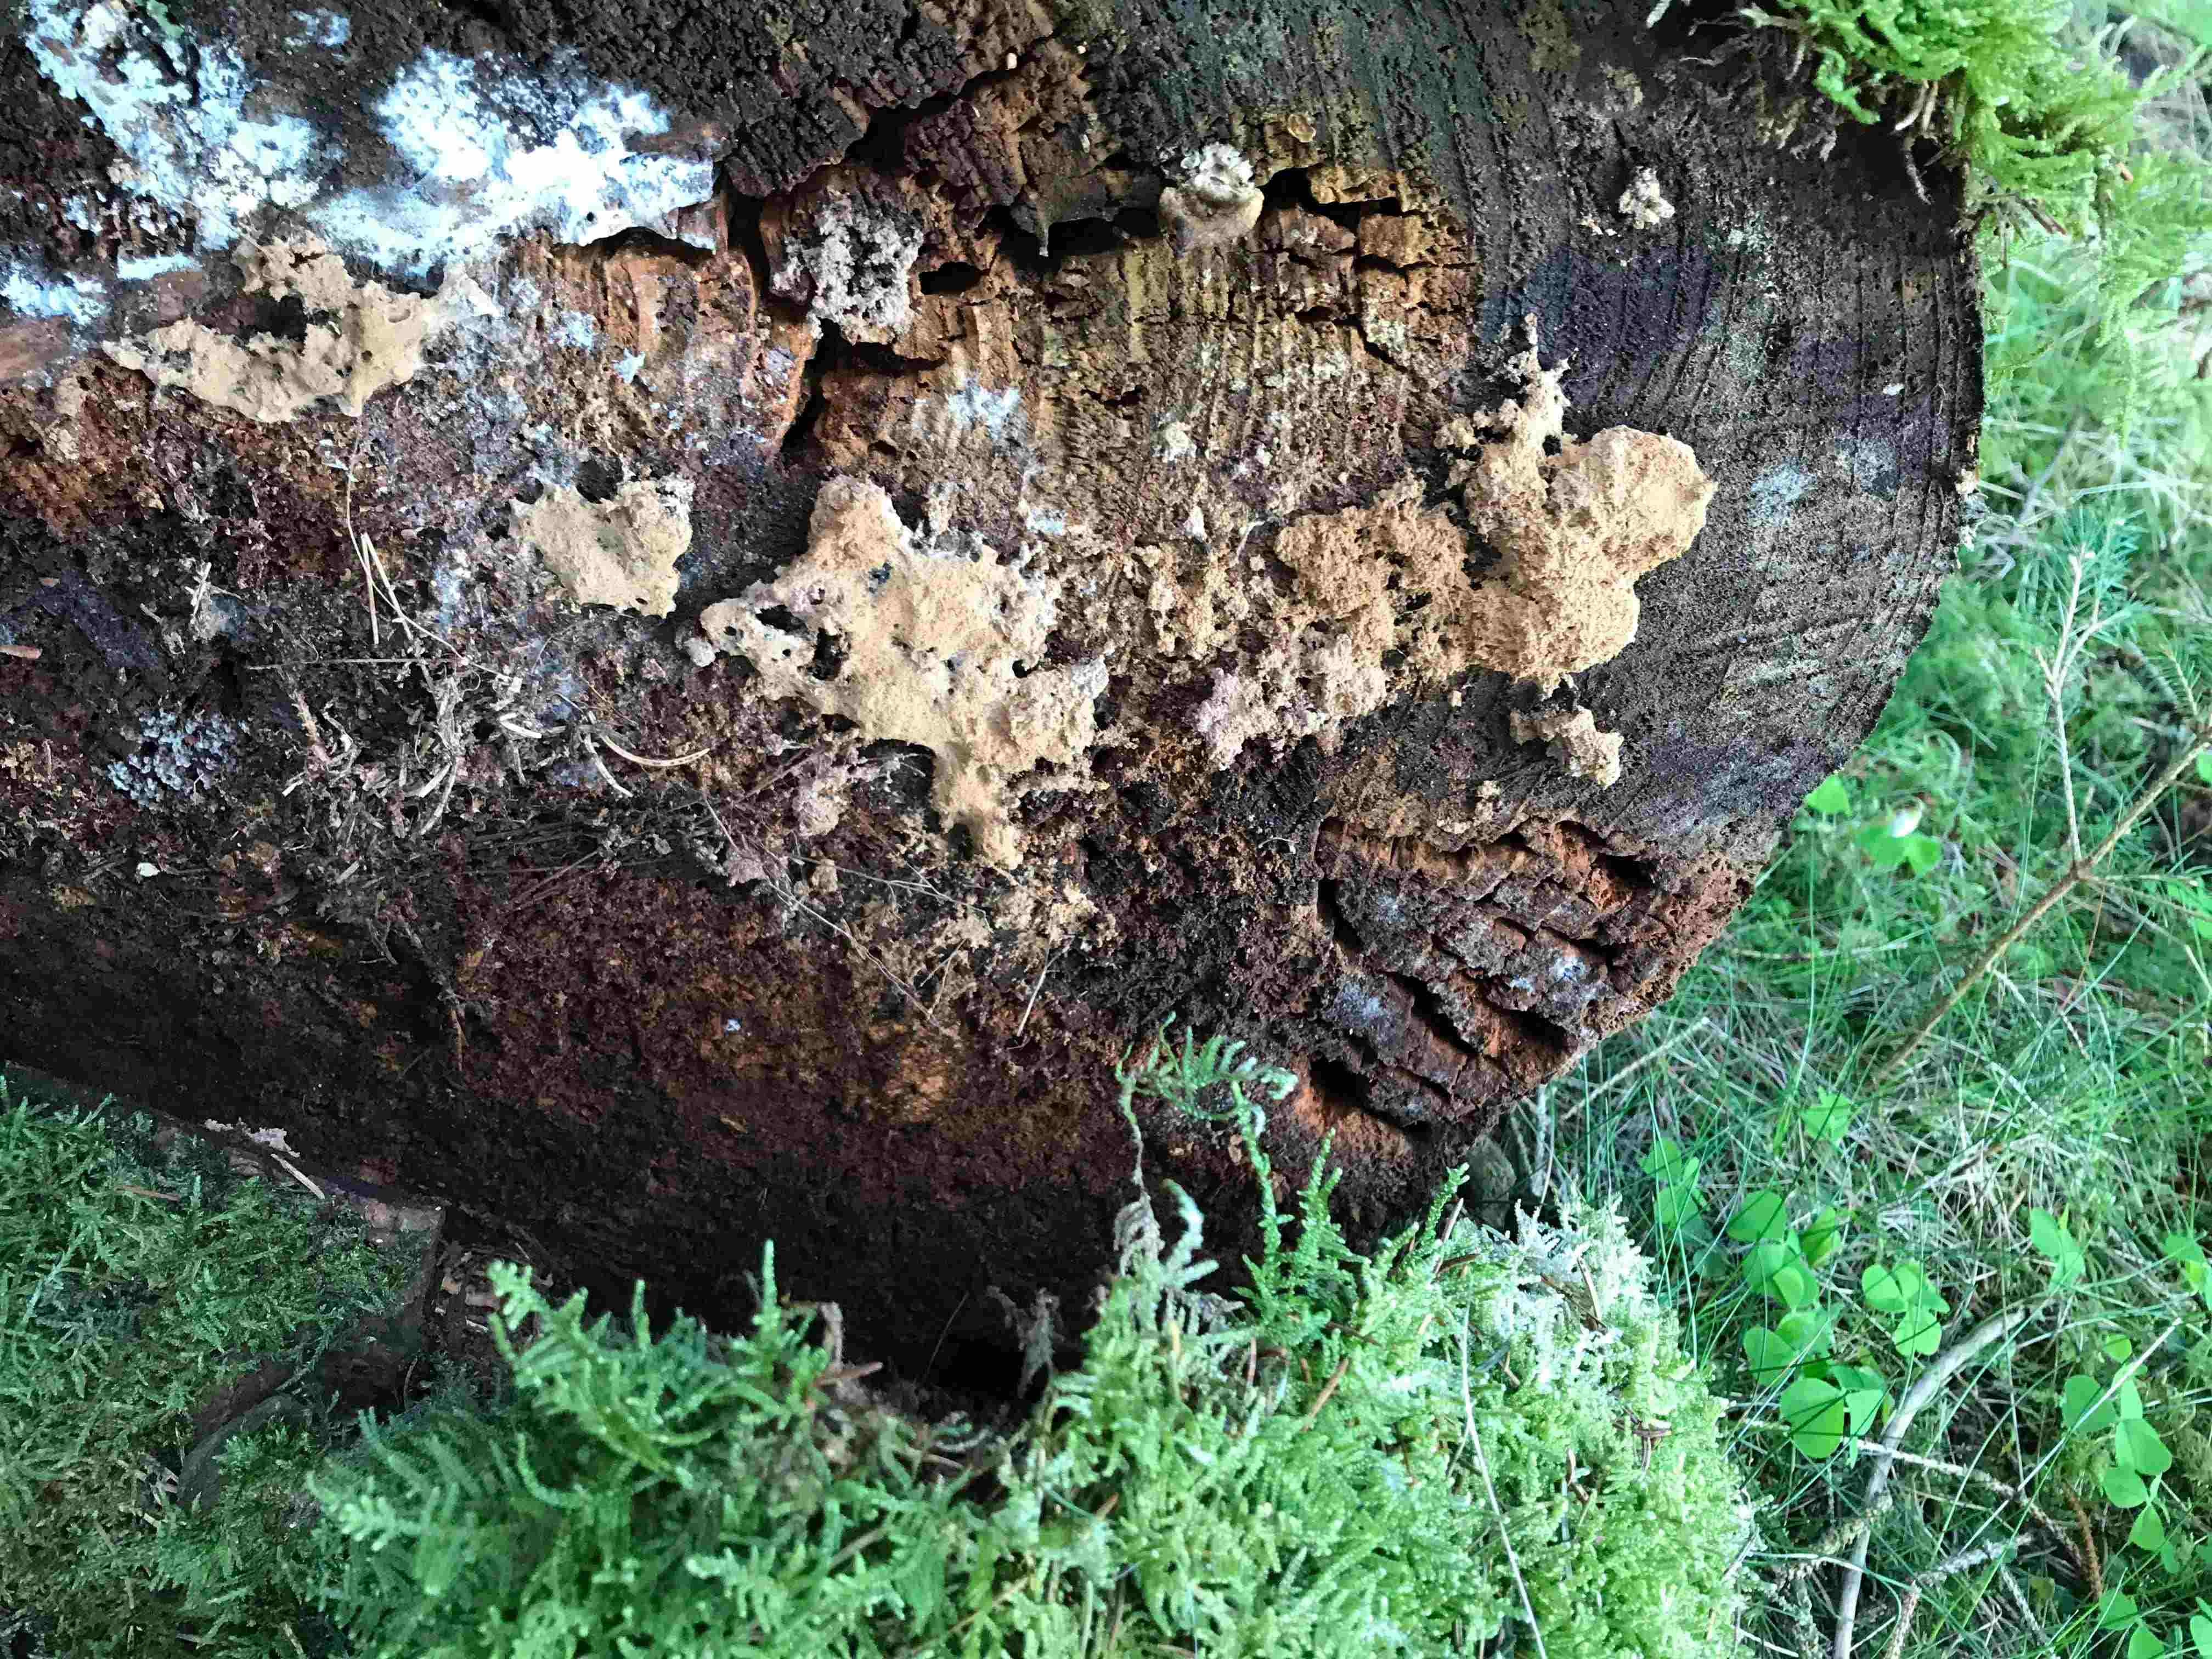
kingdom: Fungi
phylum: Basidiomycota
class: Agaricomycetes
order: Polyporales
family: Dacryobolaceae
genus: Postia
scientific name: Postia ptychogaster
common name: støvende kødporesvamp
